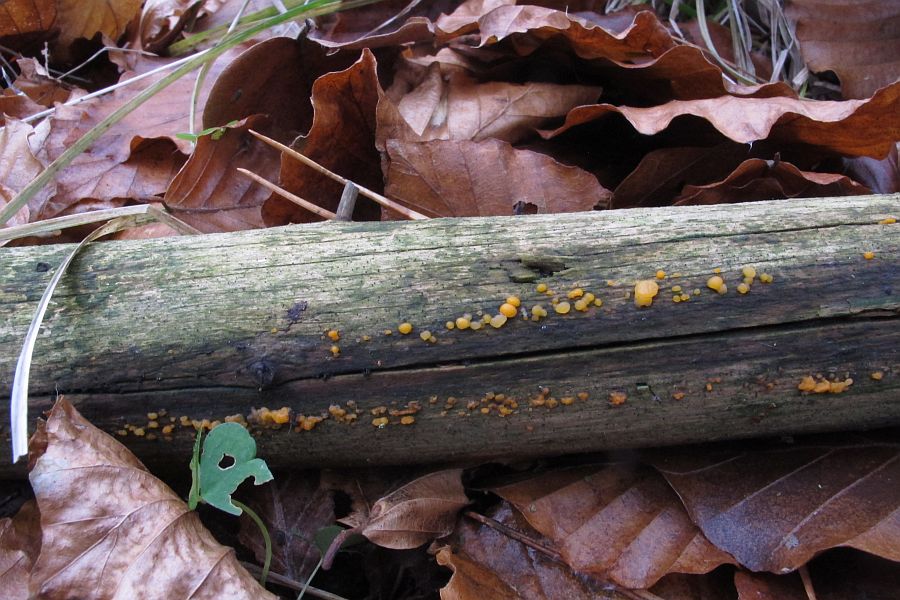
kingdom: Fungi
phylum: Basidiomycota
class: Dacrymycetes
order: Dacrymycetales
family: Dacrymycetaceae
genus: Dacrymyces
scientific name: Dacrymyces stillatus
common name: almindelig tåresvamp
